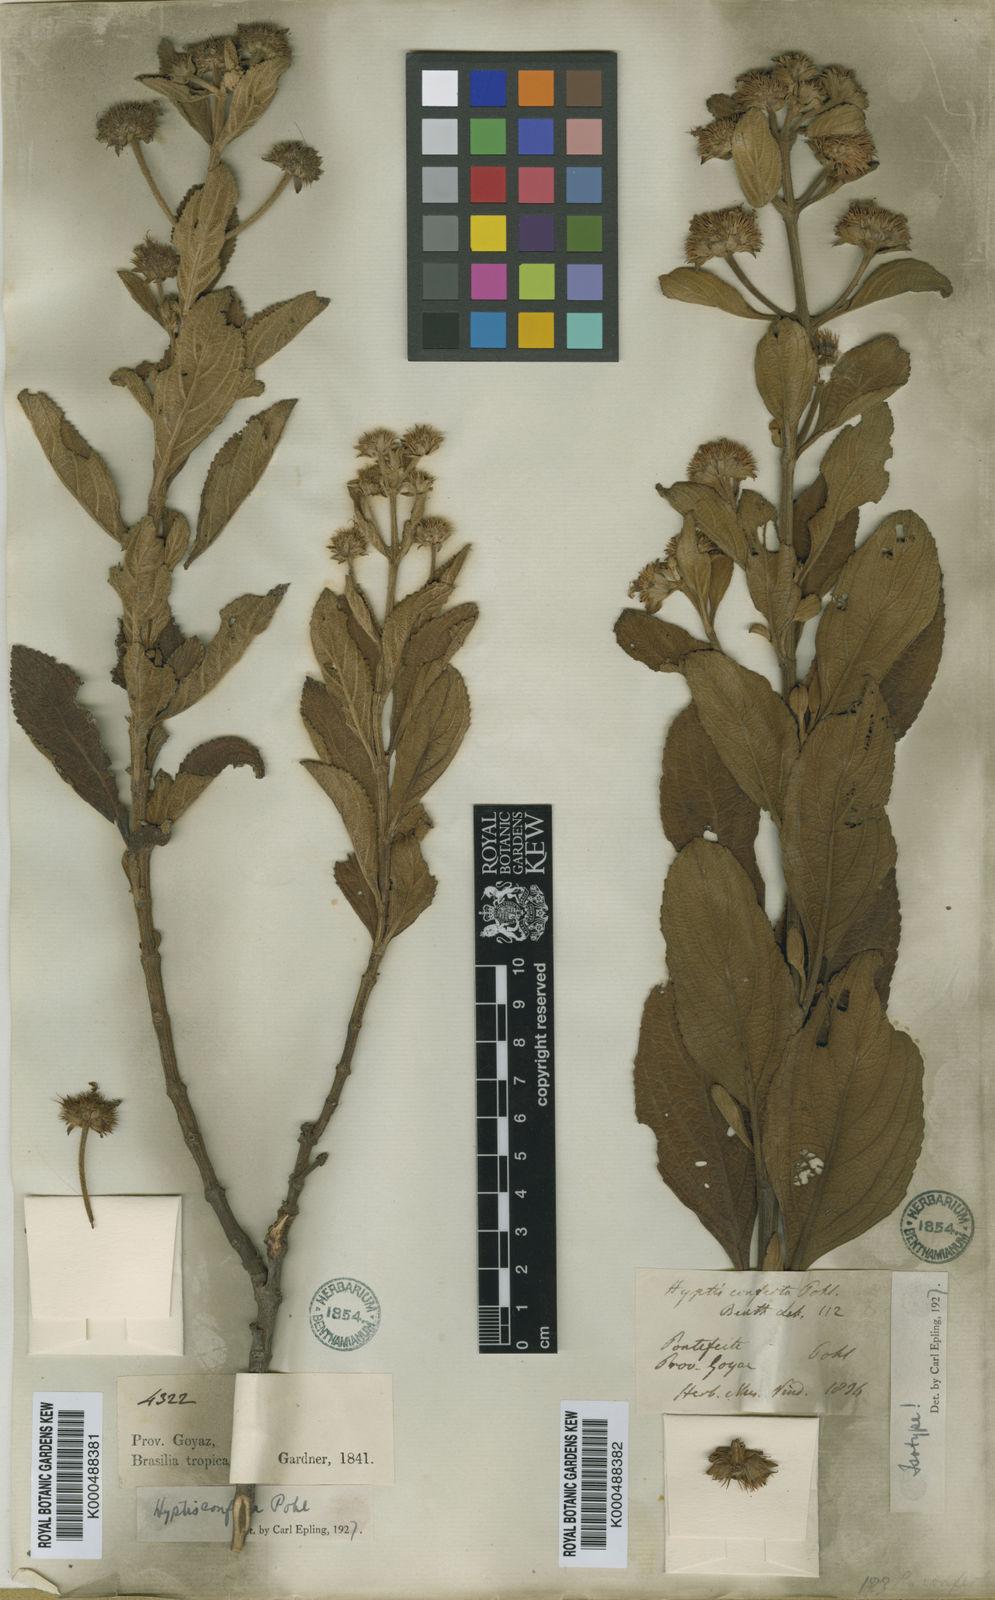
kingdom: Plantae
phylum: Tracheophyta
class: Magnoliopsida
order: Lamiales
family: Lamiaceae
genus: Hyptis
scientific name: Hyptis conferta
